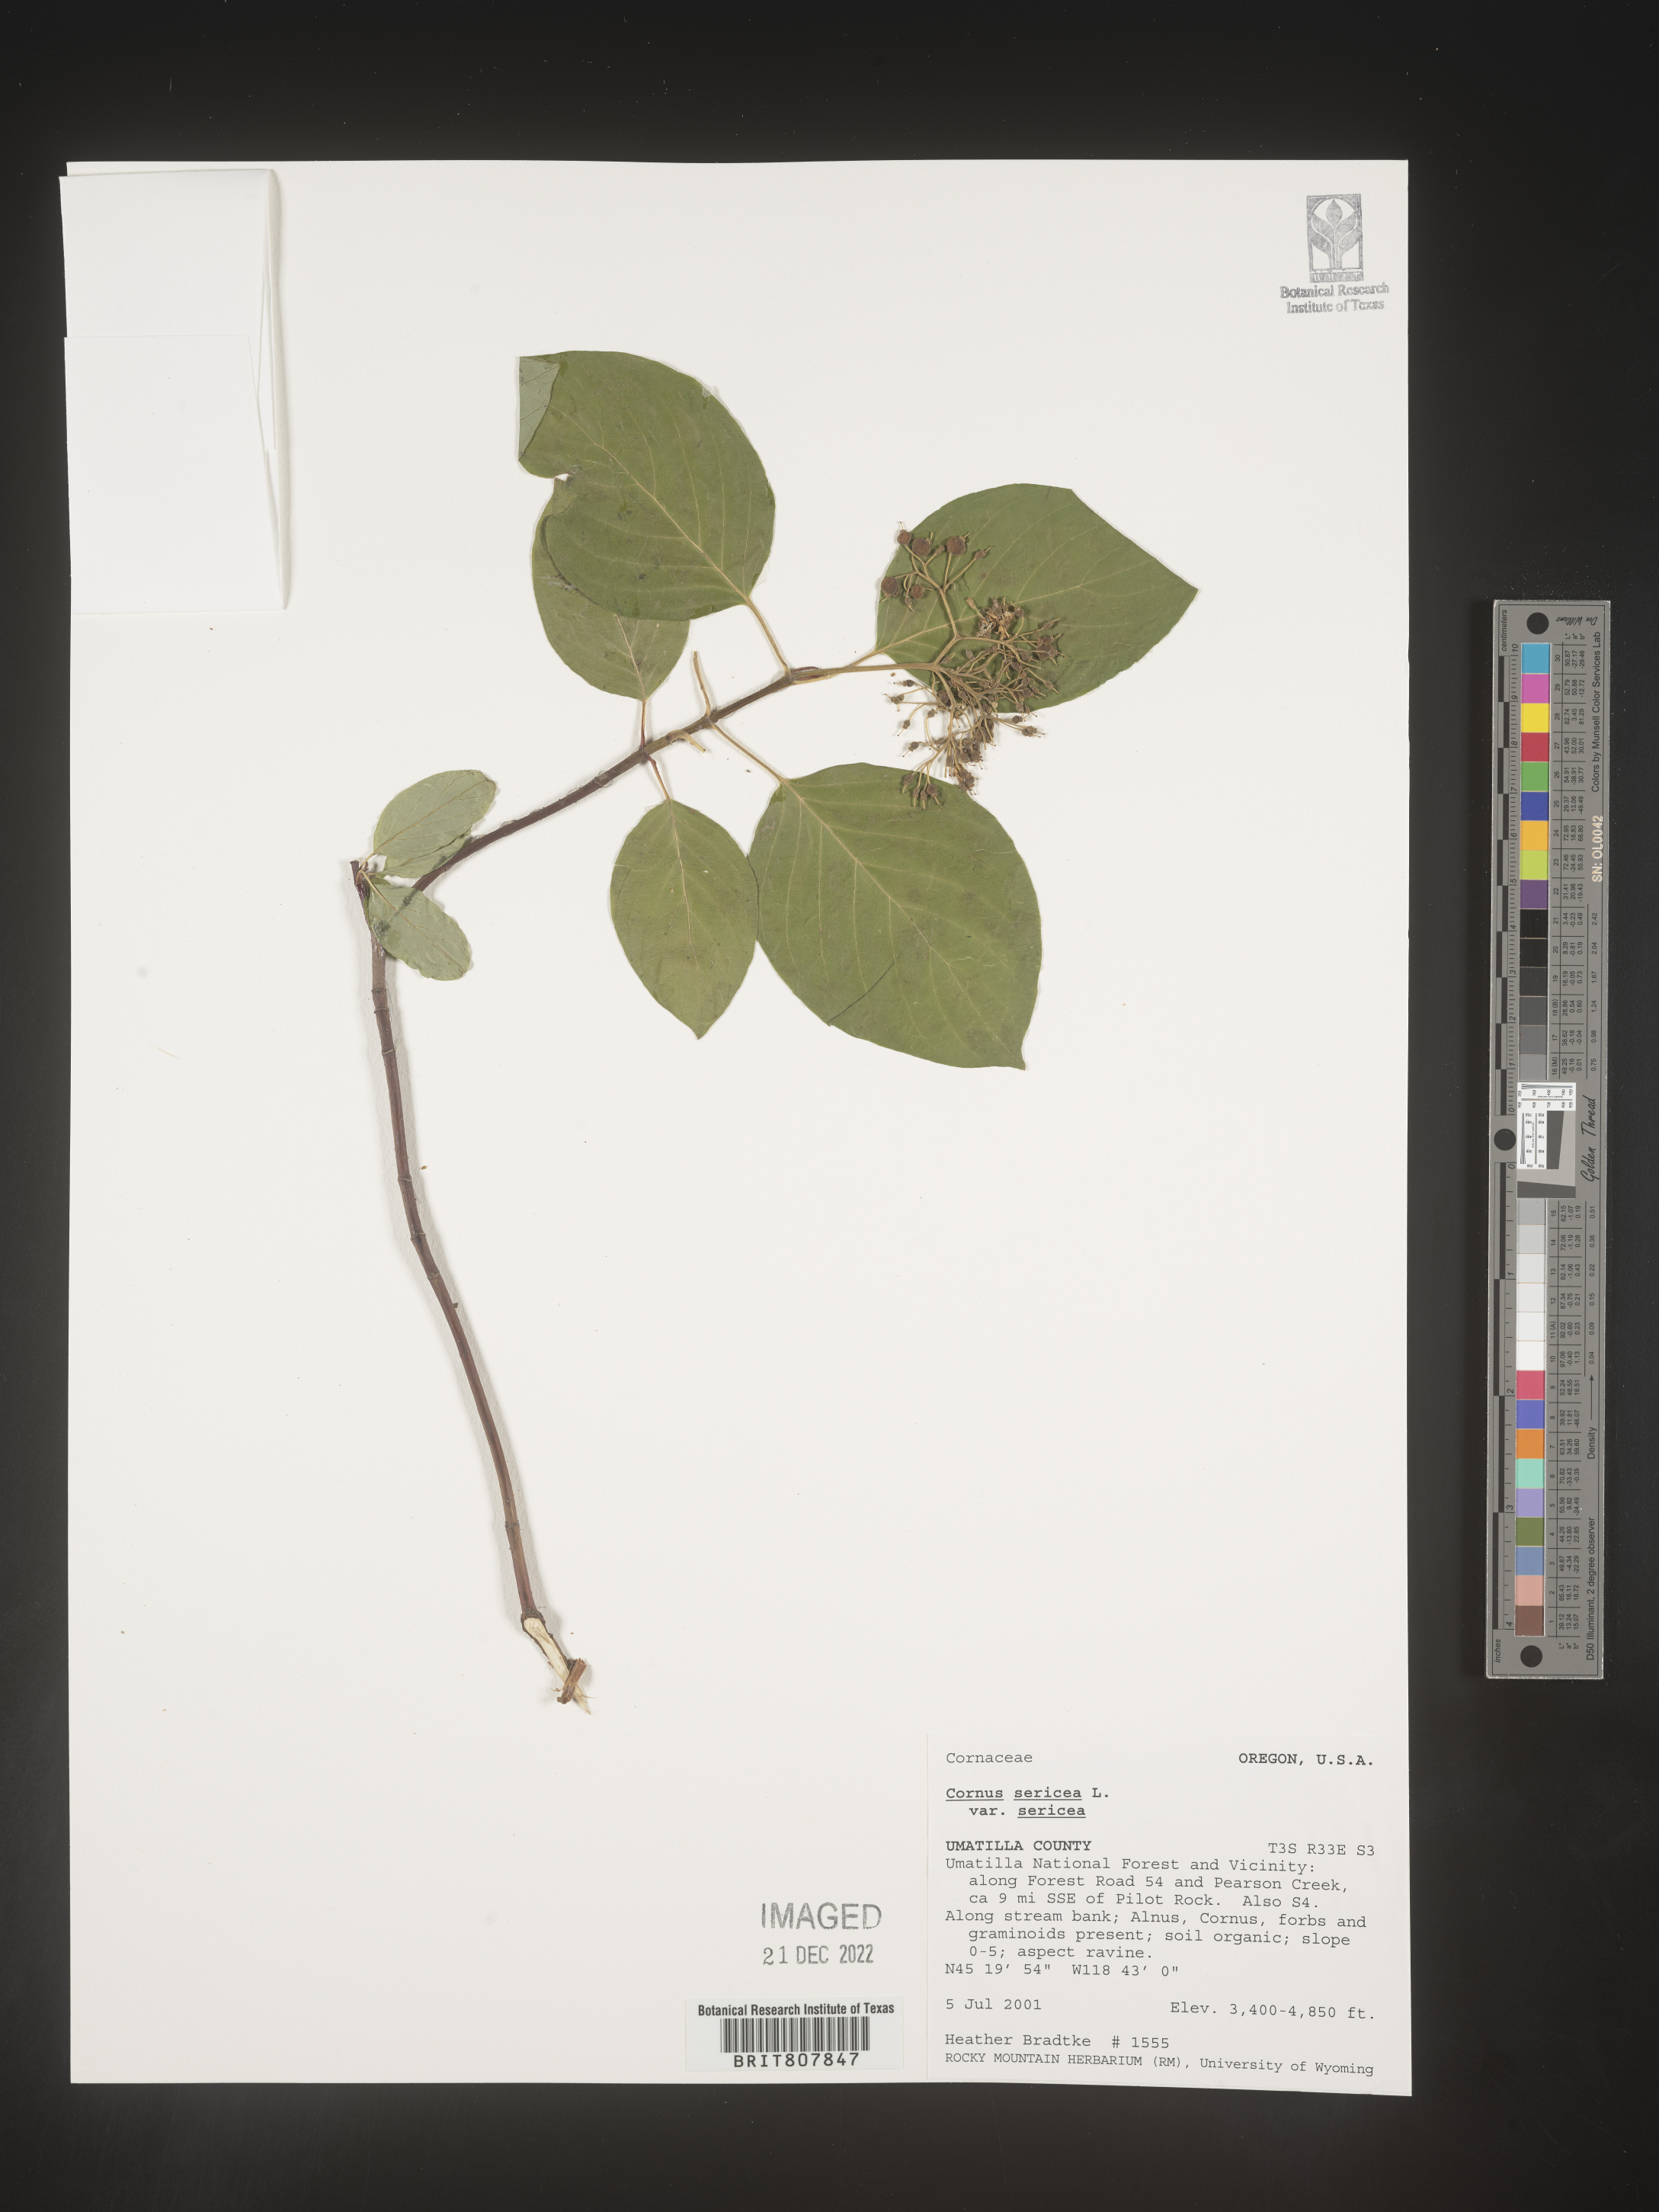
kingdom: Plantae
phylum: Tracheophyta
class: Magnoliopsida
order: Cornales
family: Cornaceae
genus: Cornus
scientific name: Cornus
